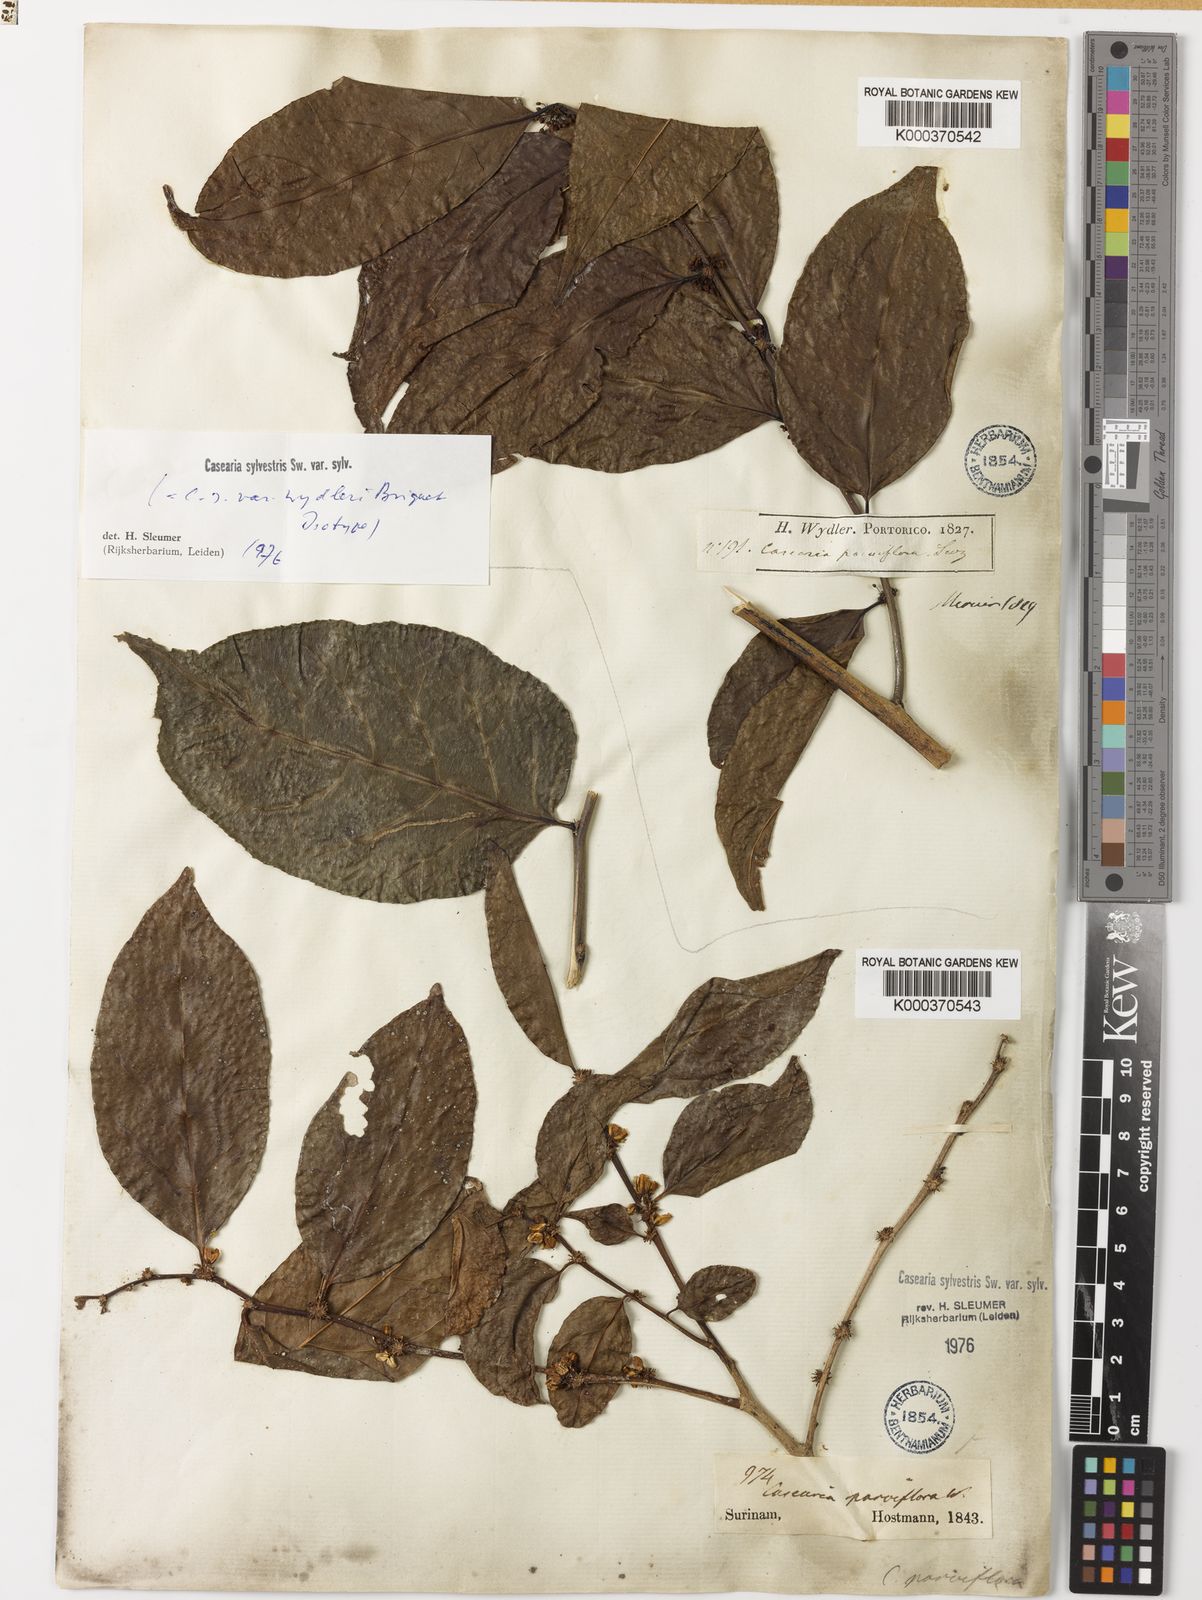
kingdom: Plantae
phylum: Tracheophyta
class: Magnoliopsida
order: Malpighiales
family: Salicaceae
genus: Casearia
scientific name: Casearia sylvestris
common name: Wild sage
